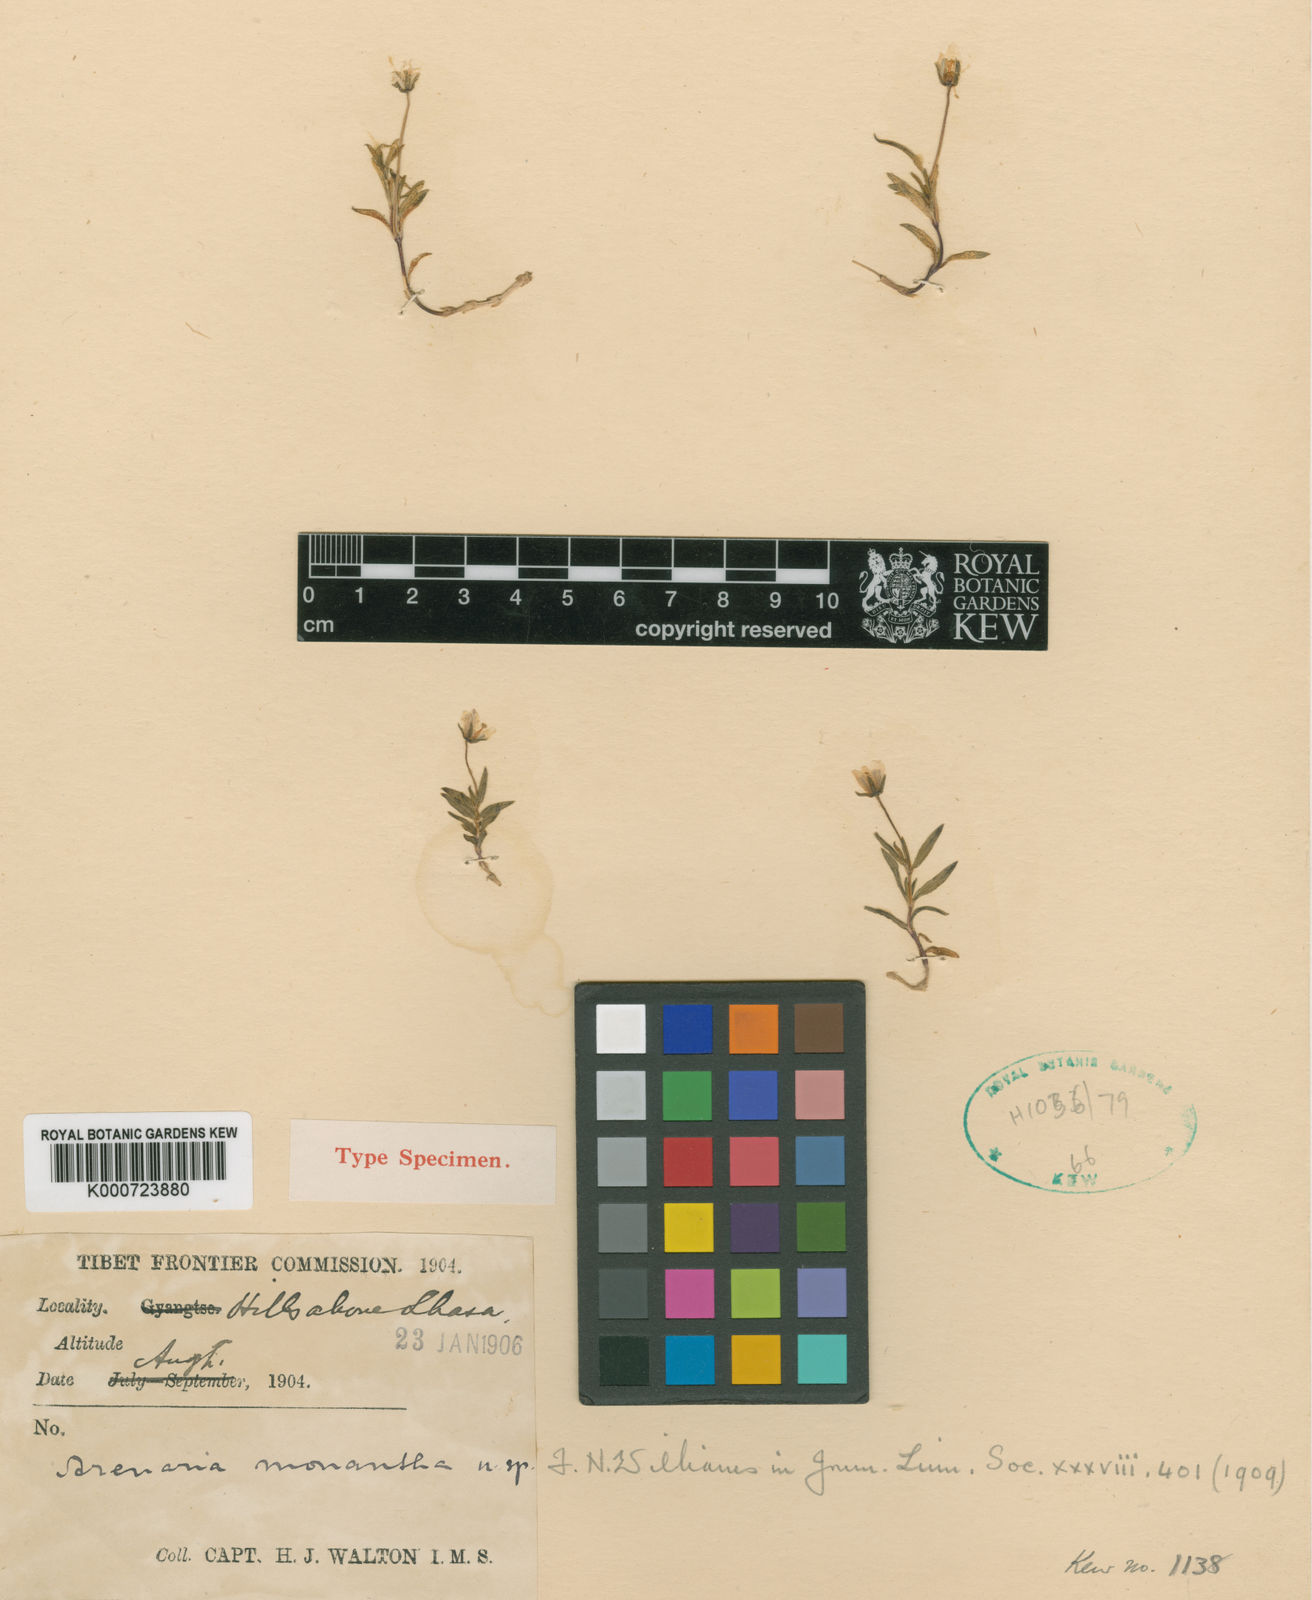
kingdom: Plantae
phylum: Tracheophyta
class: Magnoliopsida
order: Caryophyllales
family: Caryophyllaceae
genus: Shivparvatia
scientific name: Shivparvatia monantha
